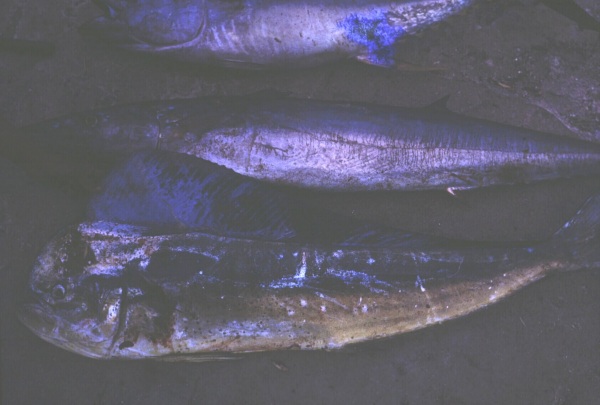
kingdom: Animalia
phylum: Chordata
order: Perciformes
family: Coryphaenidae
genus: Coryphaena
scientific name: Coryphaena hippurus
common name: Dolphin
